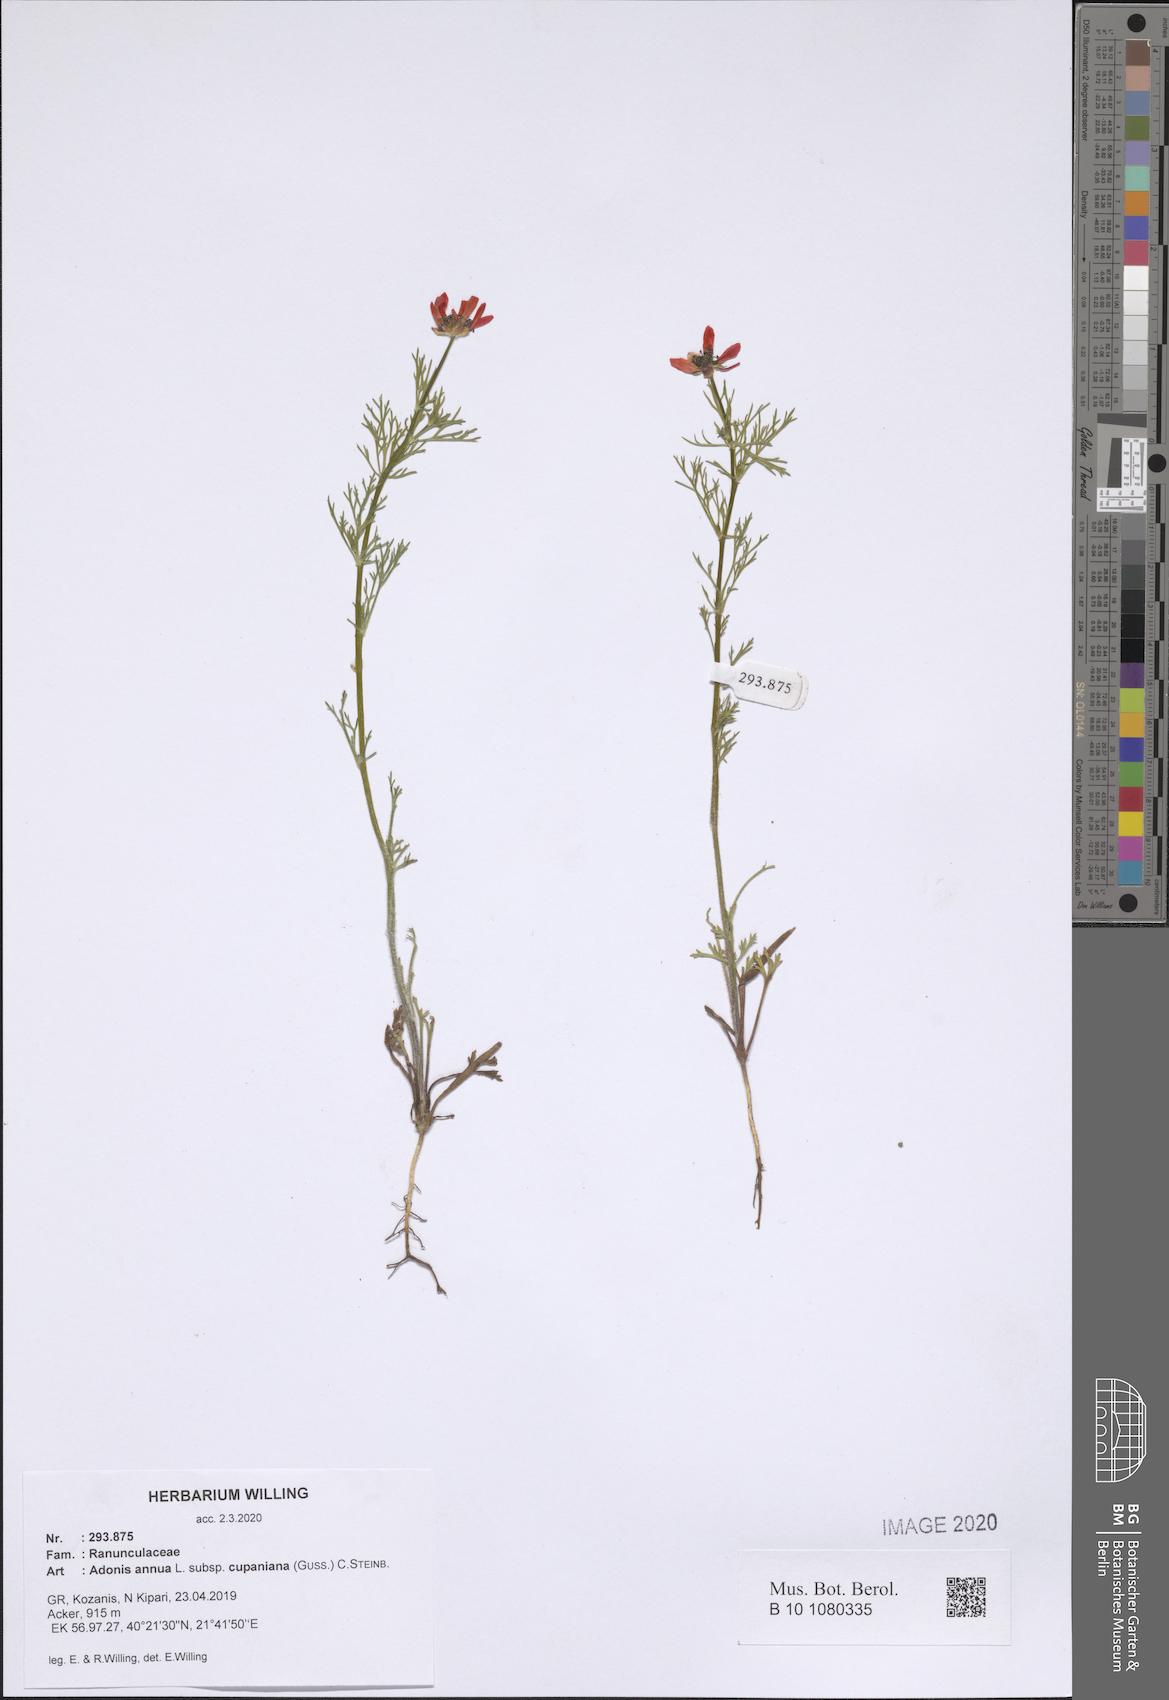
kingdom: Plantae
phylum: Tracheophyta
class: Magnoliopsida
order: Ranunculales
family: Ranunculaceae
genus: Adonis
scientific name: Adonis annua
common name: Pheasant's-eye
